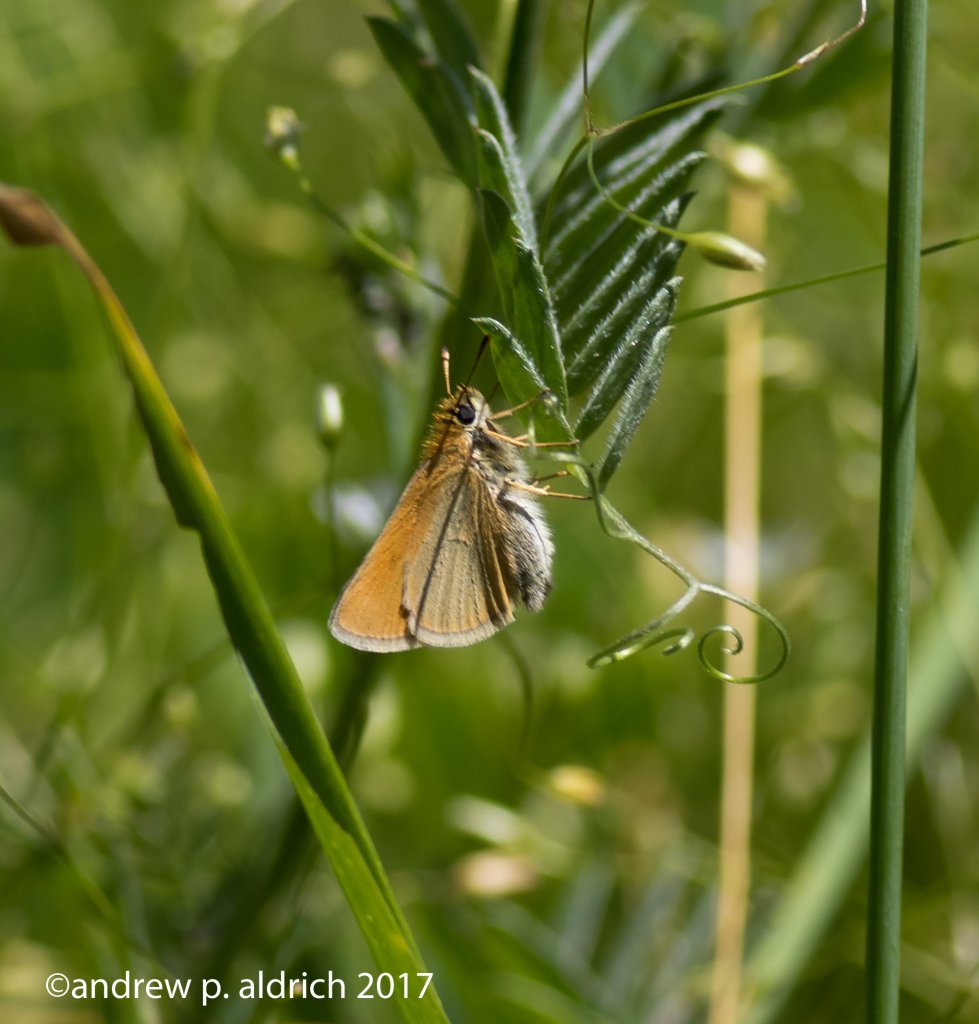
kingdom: Animalia
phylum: Arthropoda
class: Insecta
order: Lepidoptera
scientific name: Lepidoptera
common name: Butterflies
